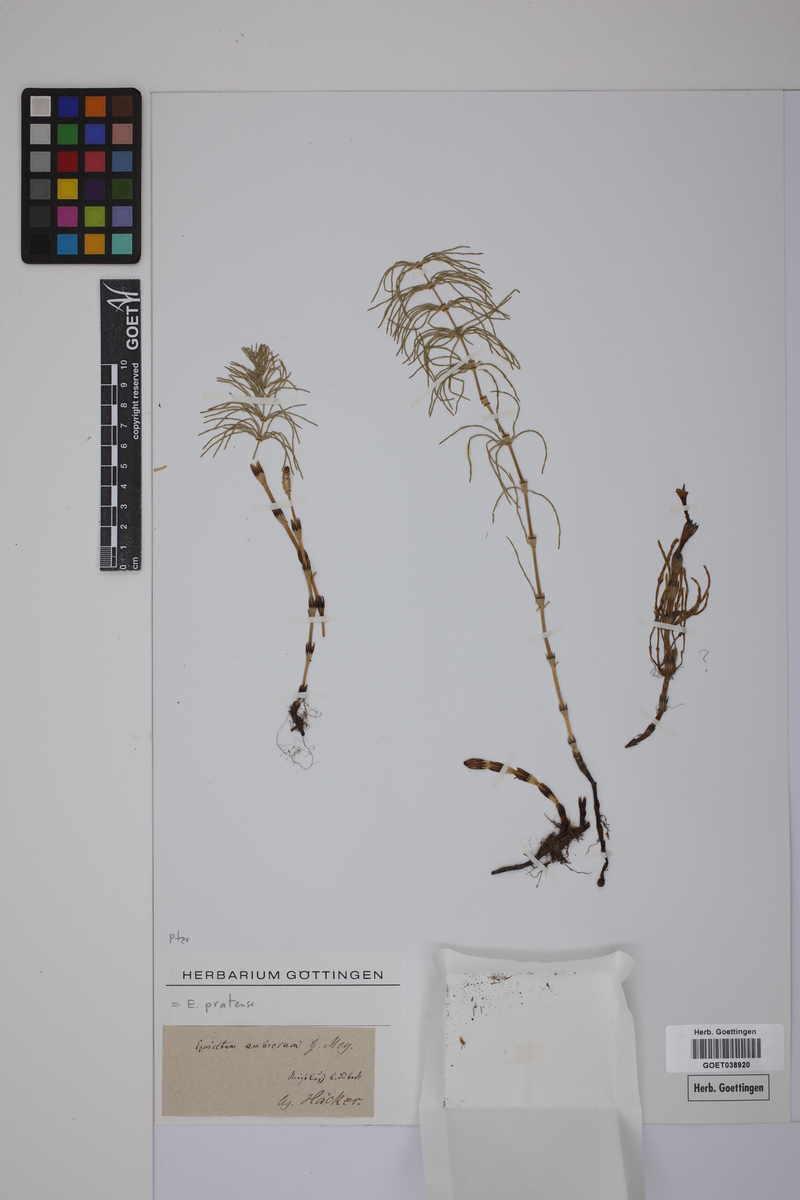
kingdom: Plantae
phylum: Tracheophyta
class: Polypodiopsida
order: Equisetales
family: Equisetaceae
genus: Equisetum
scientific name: Equisetum pratense
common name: Meadow horsetail
